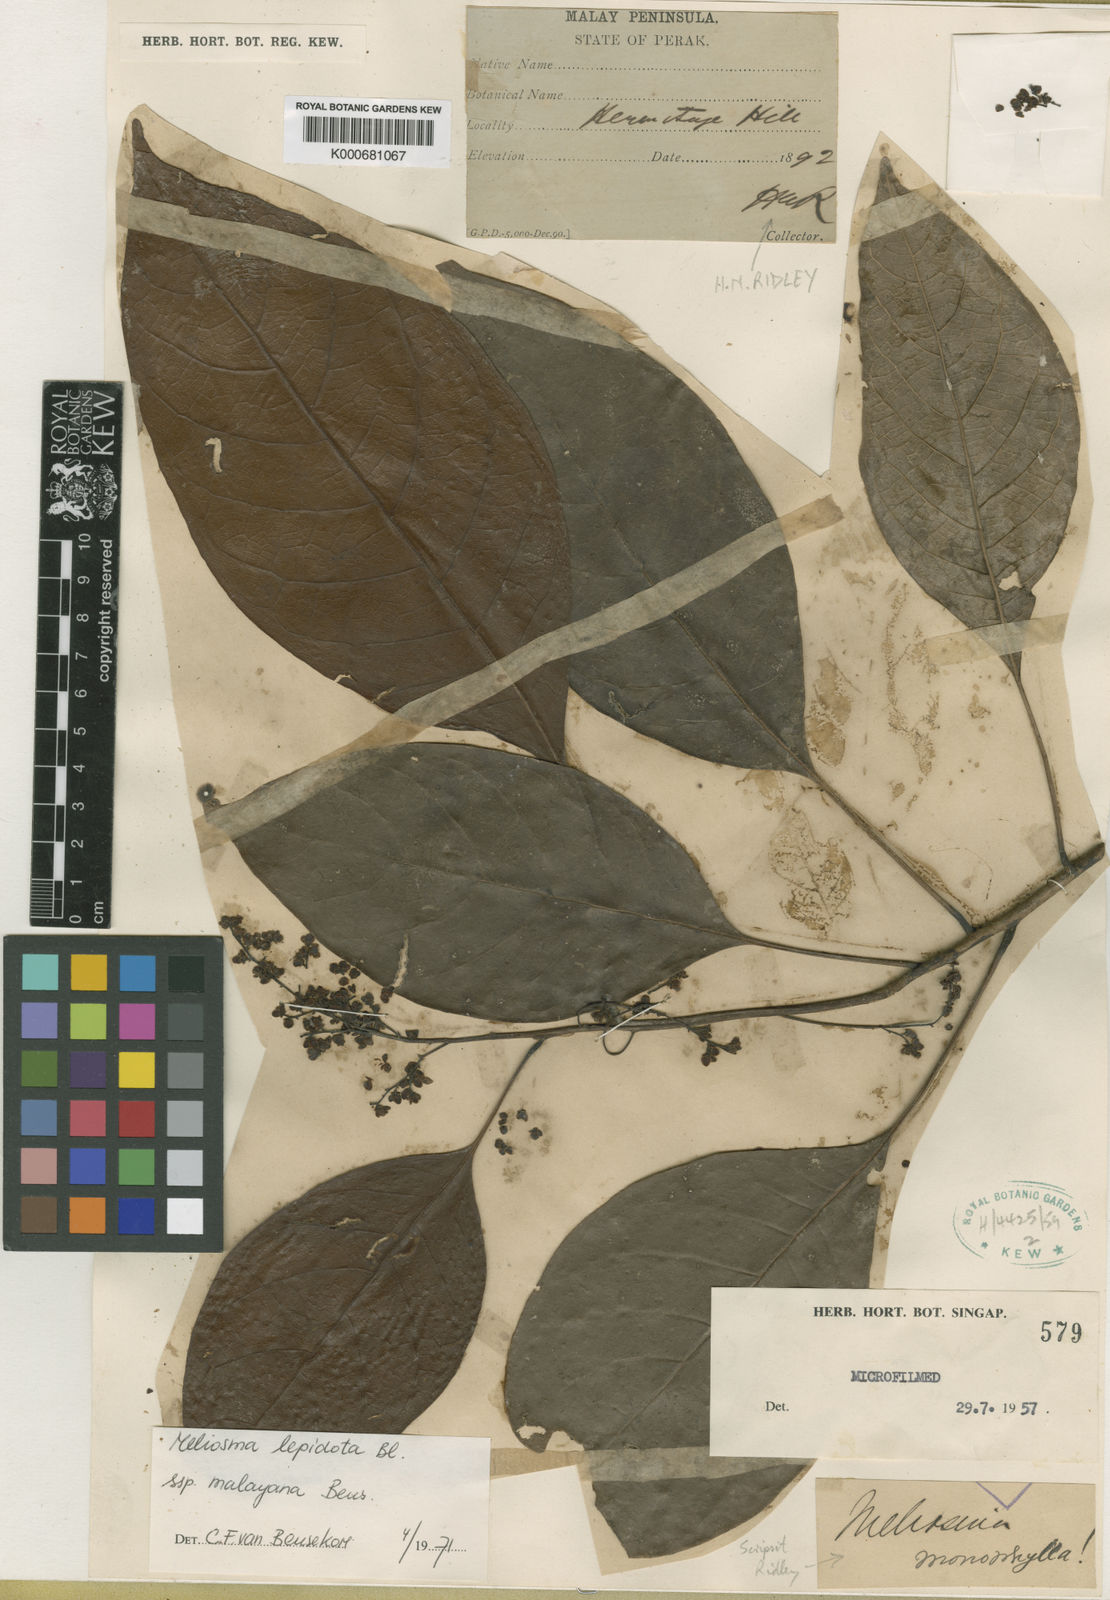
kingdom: Plantae
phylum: Tracheophyta
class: Magnoliopsida
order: Proteales
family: Sabiaceae
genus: Meliosma
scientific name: Meliosma lepidota
